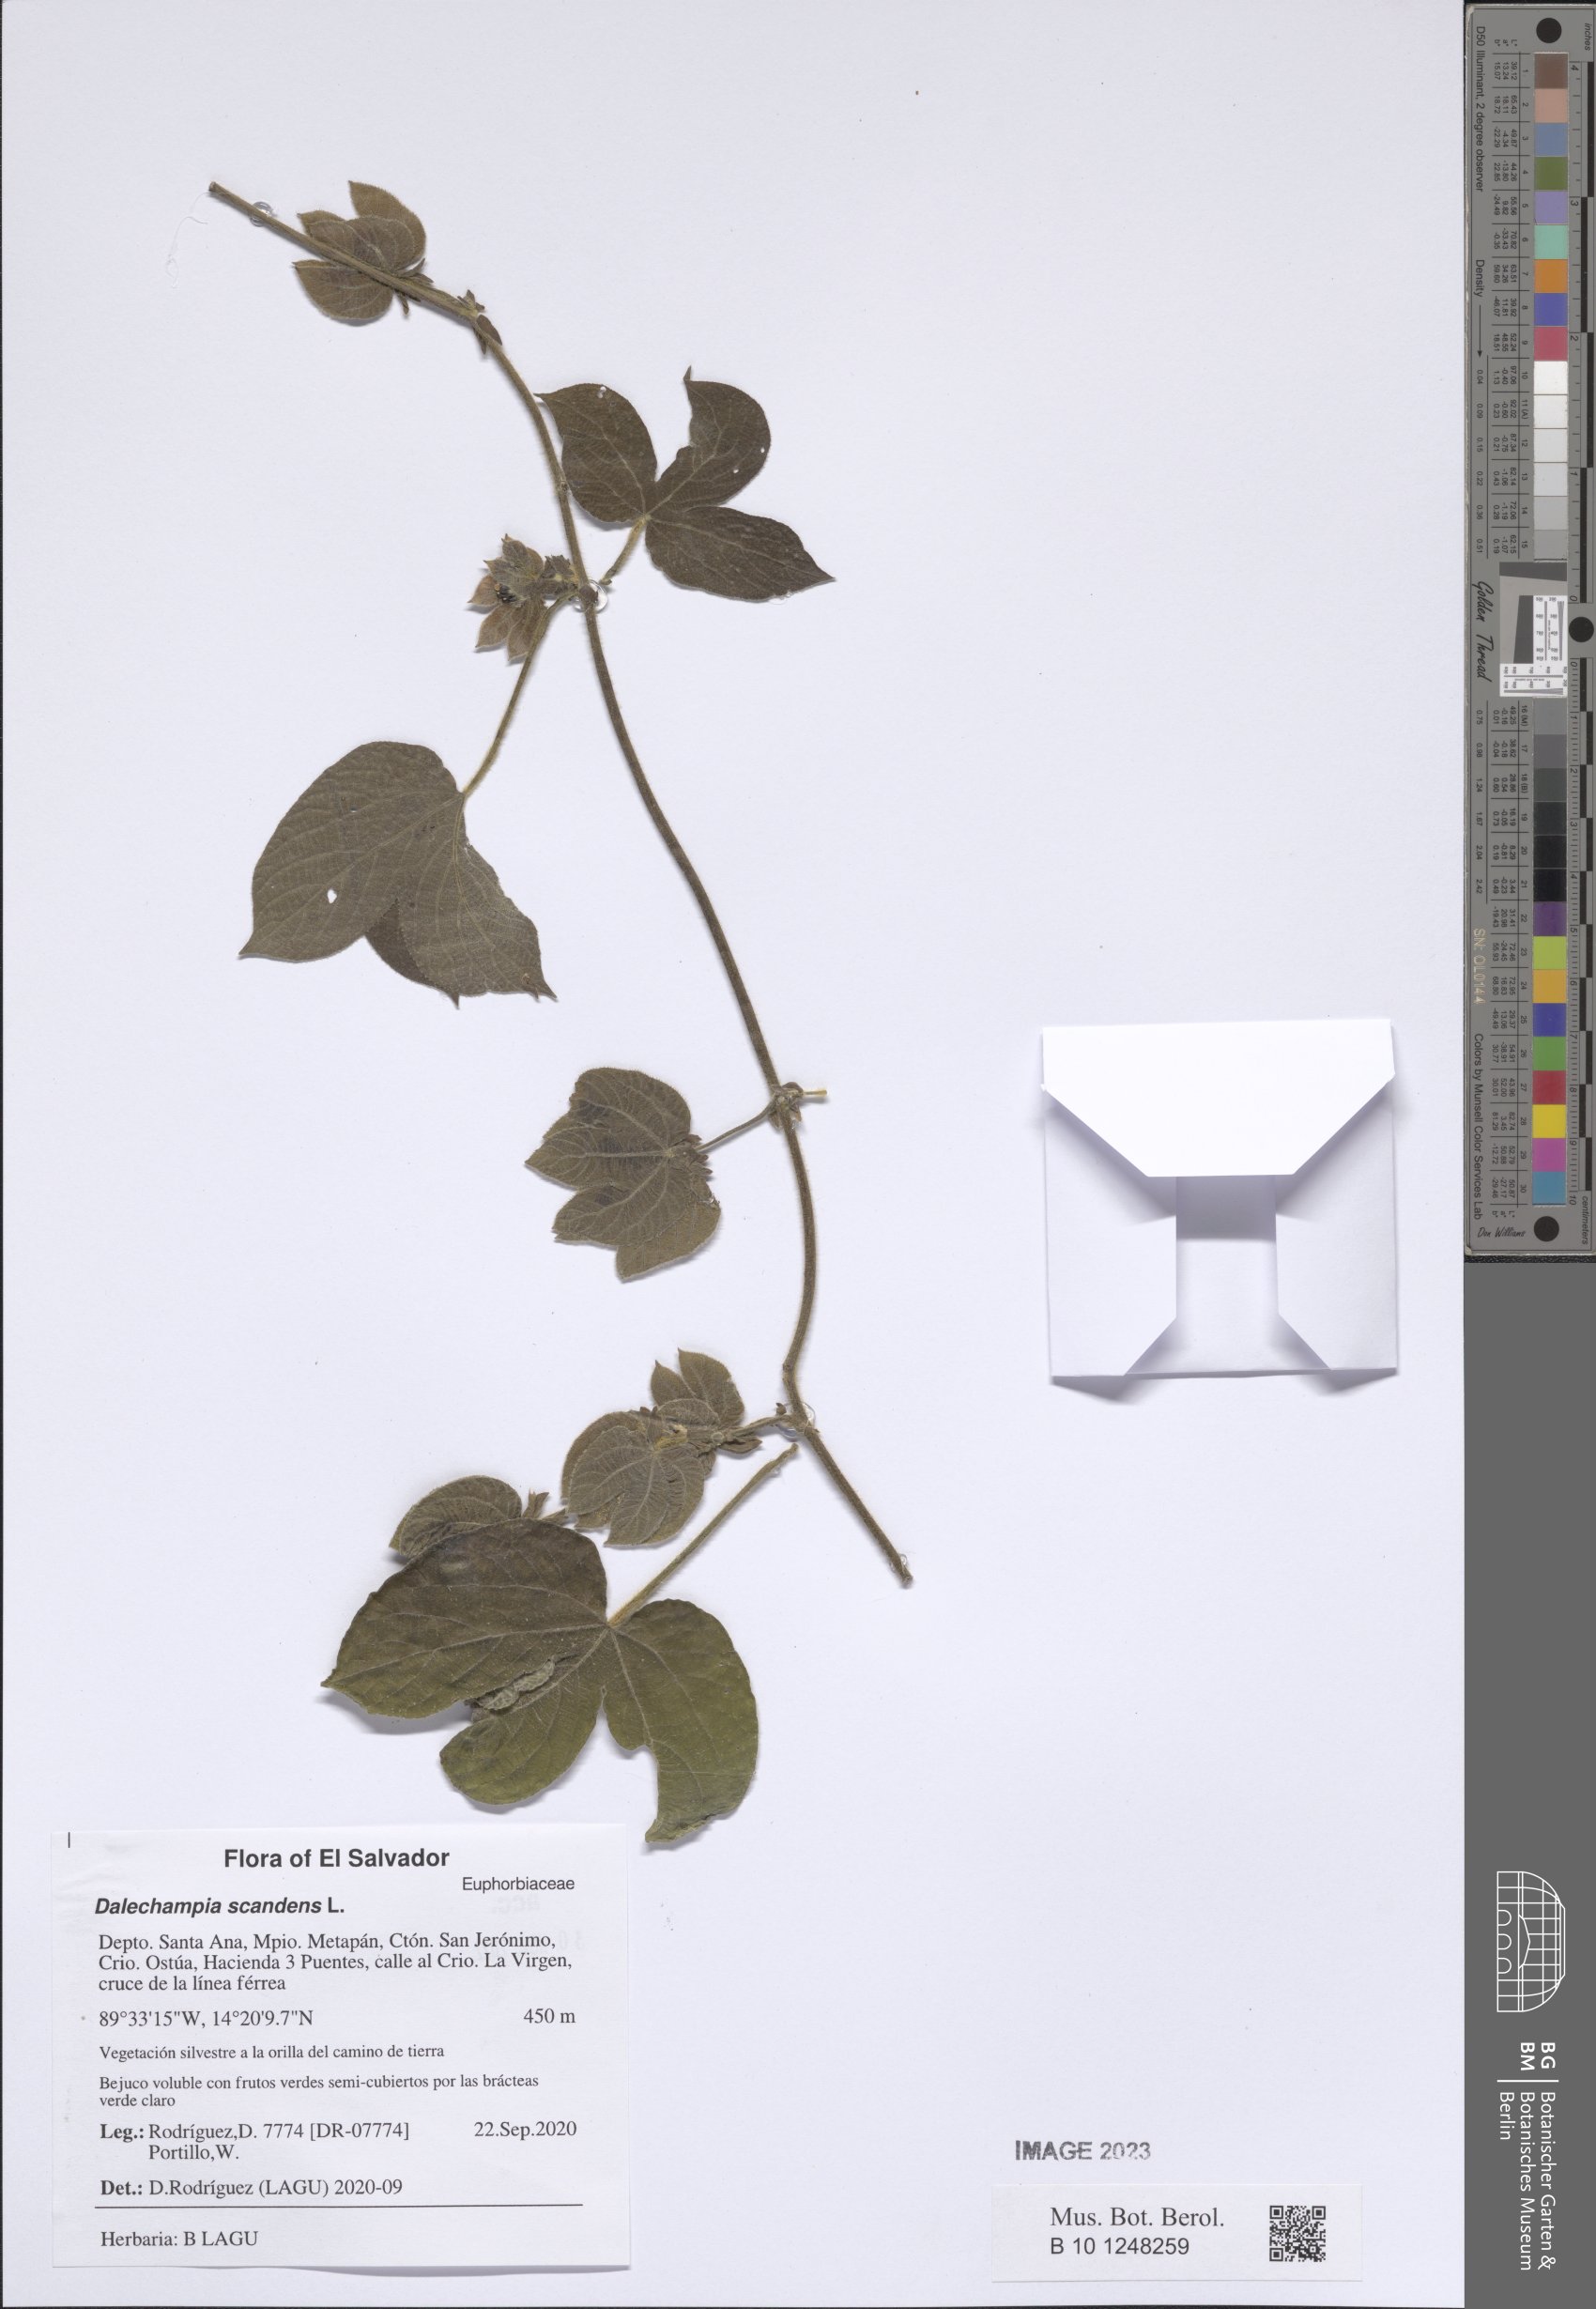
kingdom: Plantae
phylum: Tracheophyta
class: Magnoliopsida
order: Malpighiales
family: Euphorbiaceae
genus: Dalechampia
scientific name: Dalechampia scandens
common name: Spurgecreeper
